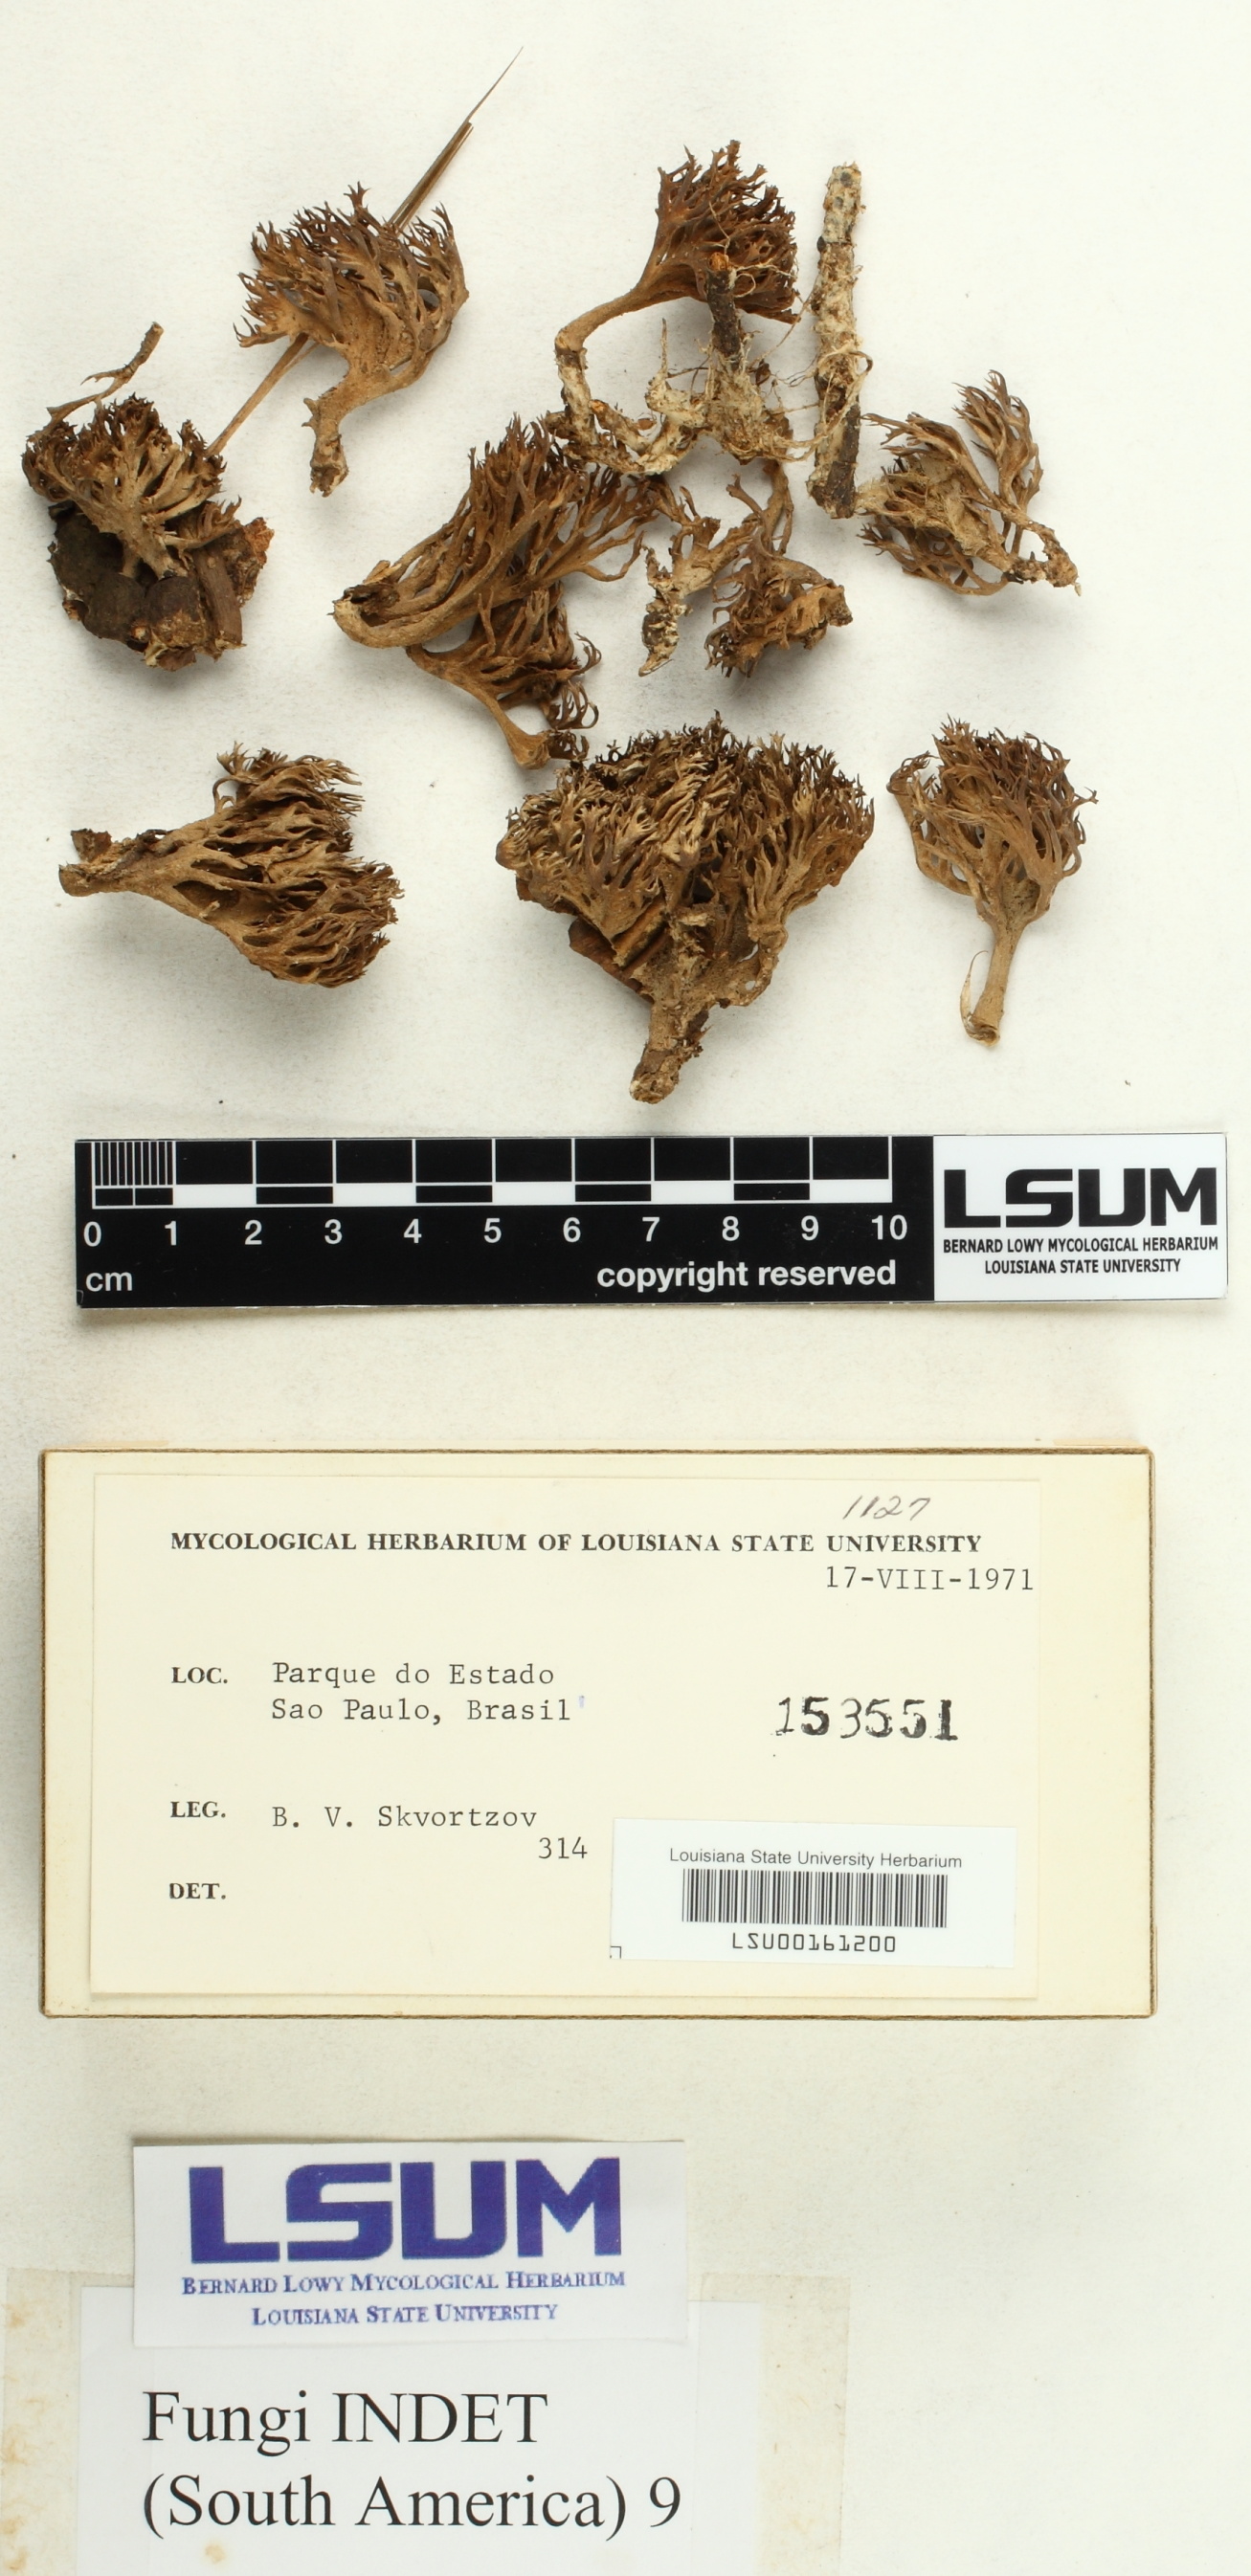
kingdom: Fungi
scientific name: Fungi
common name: Fungi
